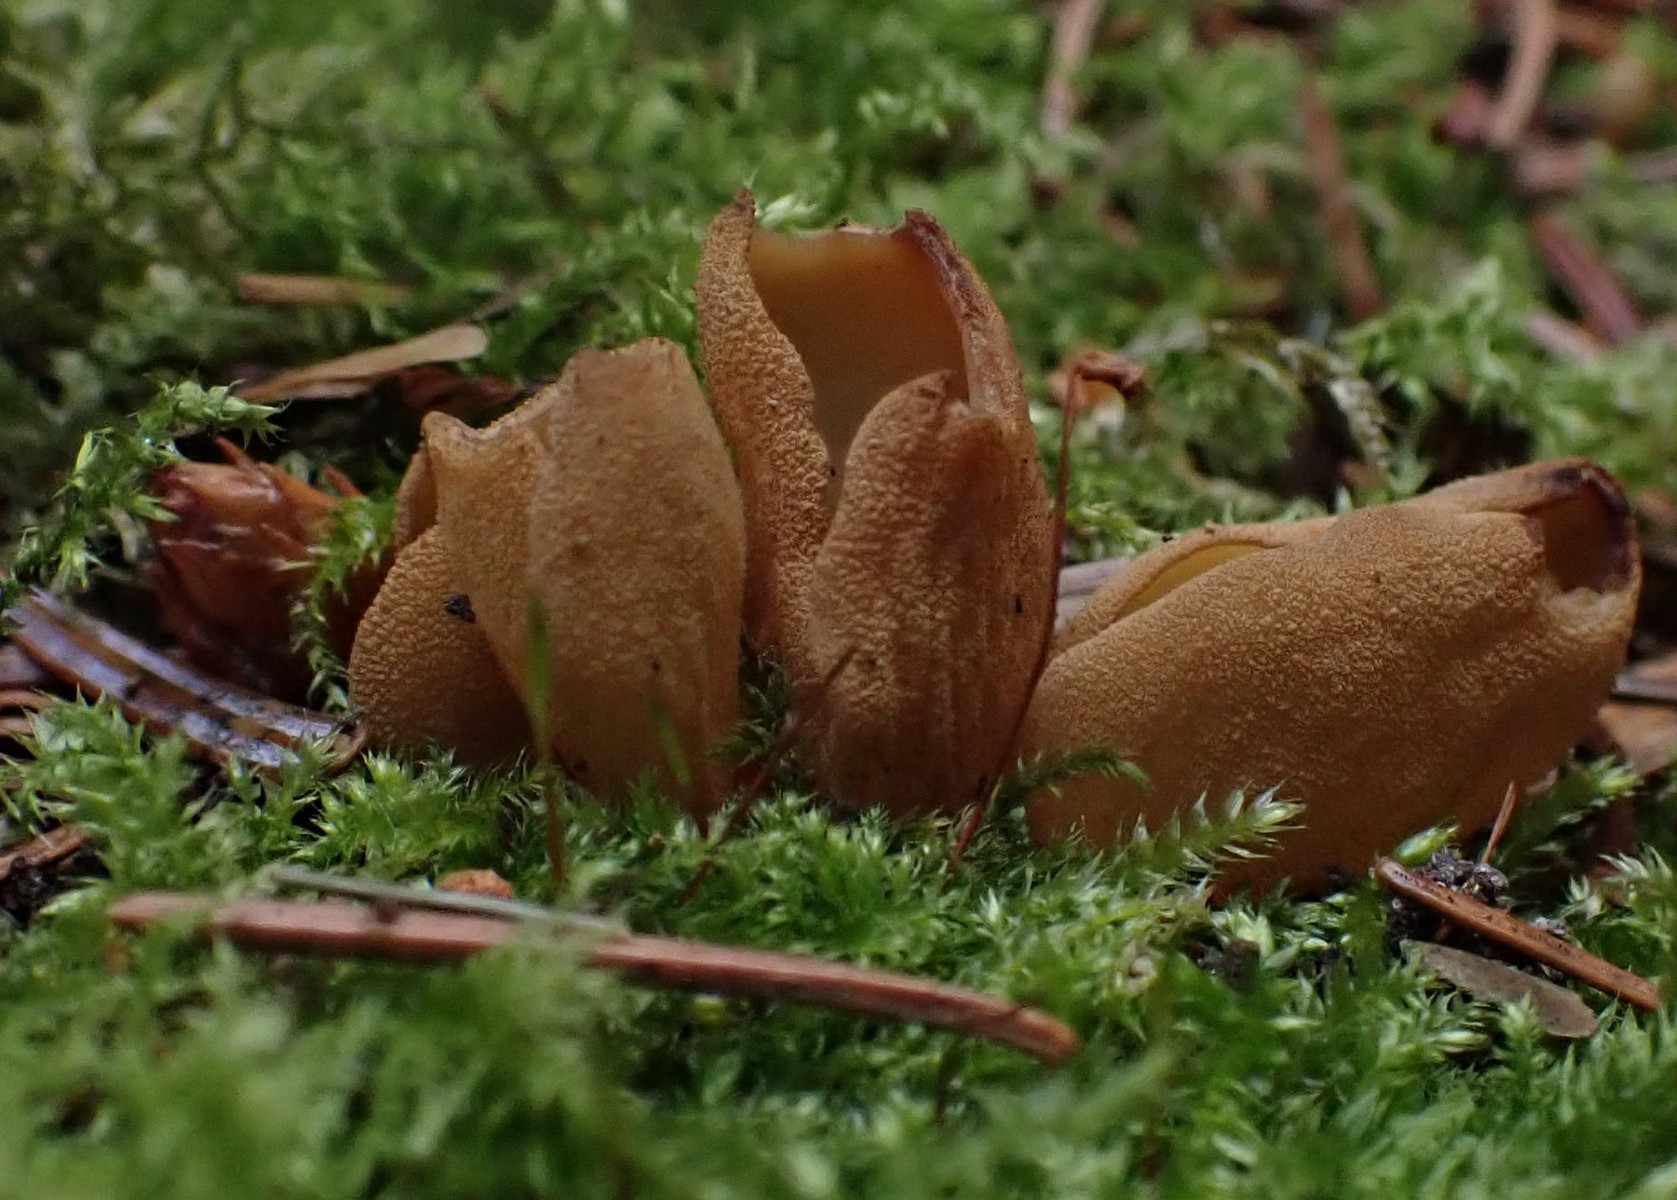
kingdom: Fungi
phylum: Ascomycota
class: Pezizomycetes
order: Pezizales
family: Otideaceae
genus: Otidea
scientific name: Otidea tuomikoskii
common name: kano-ørebæger
